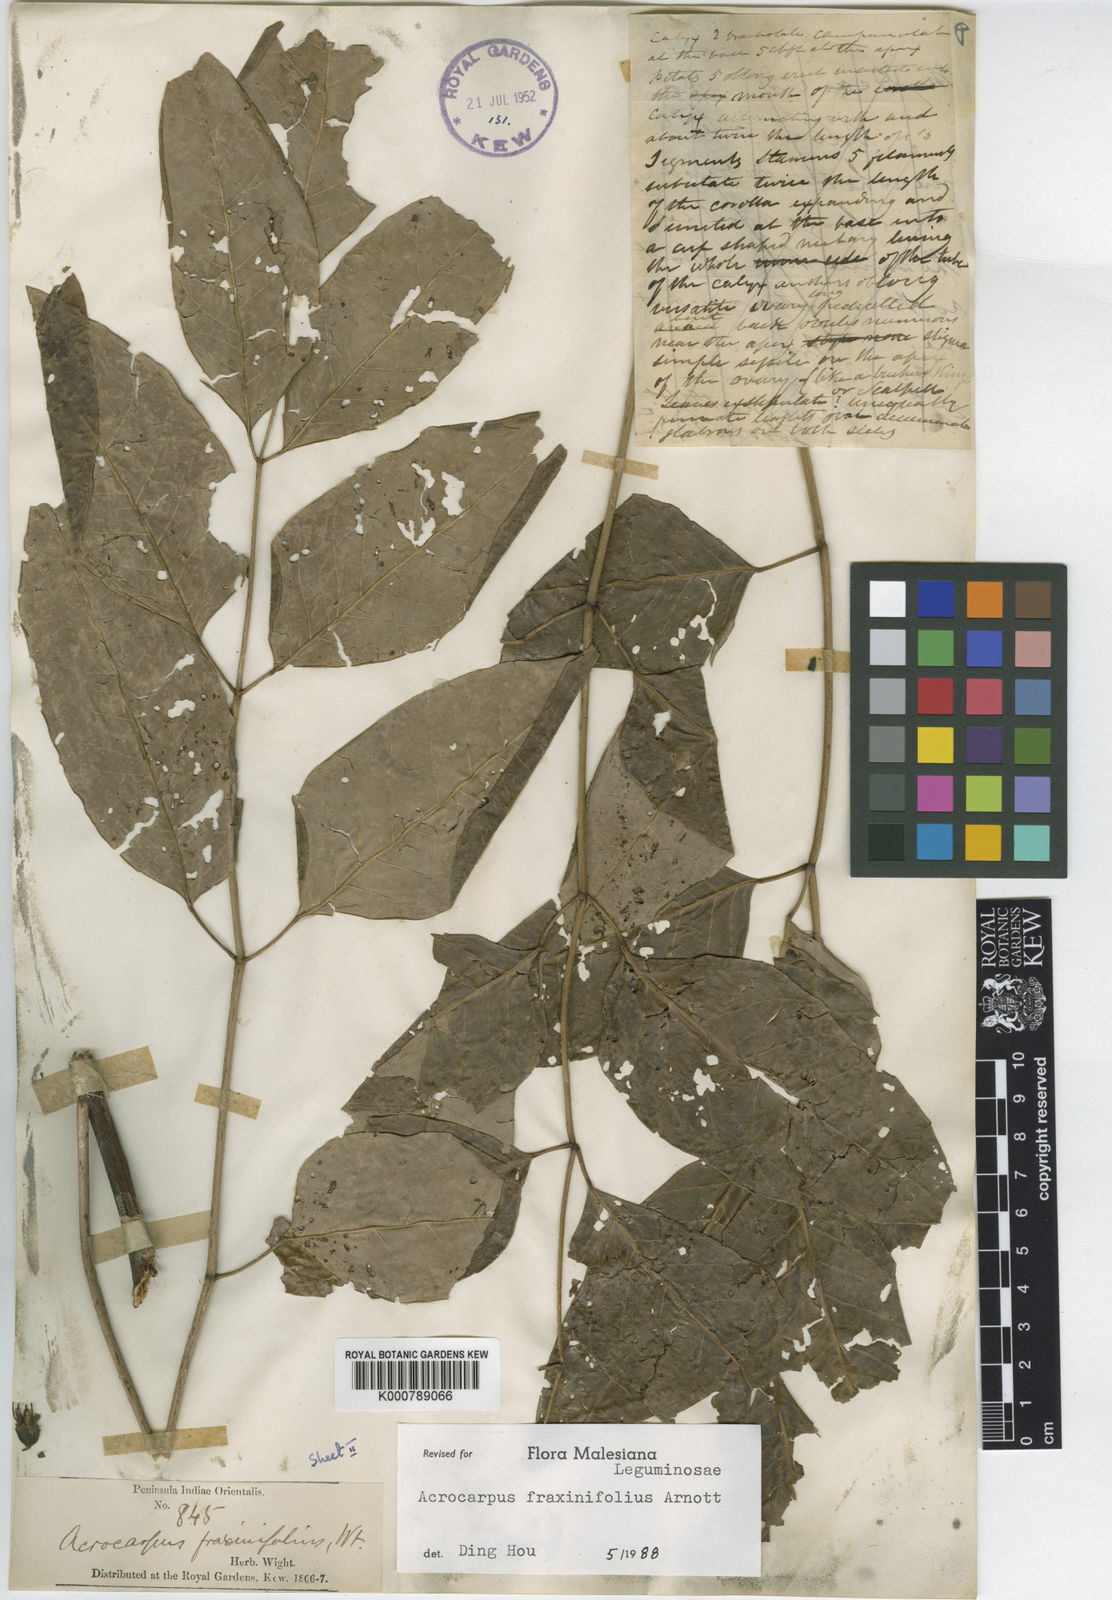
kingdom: Plantae
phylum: Tracheophyta
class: Magnoliopsida
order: Fabales
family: Fabaceae
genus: Acrocarpus
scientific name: Acrocarpus fraxinifolius
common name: Kenya coffeeshade
